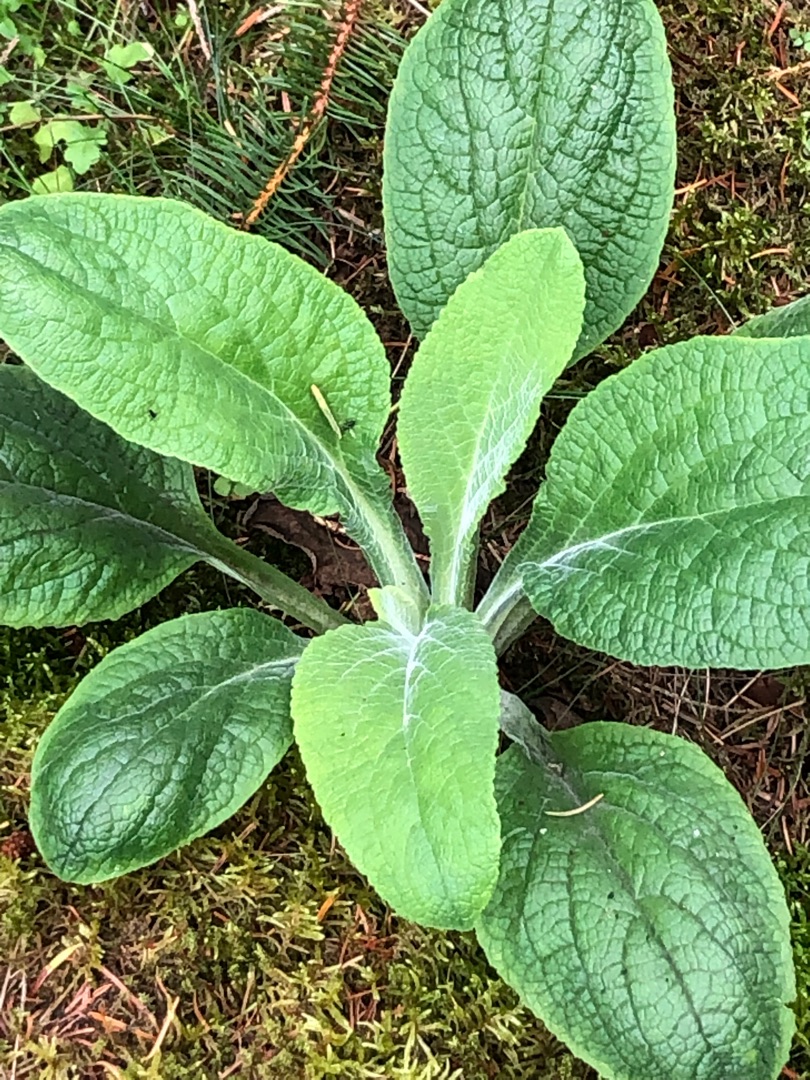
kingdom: Plantae
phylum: Tracheophyta
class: Magnoliopsida
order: Lamiales
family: Plantaginaceae
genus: Digitalis
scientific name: Digitalis purpurea
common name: Almindelig fingerbøl
